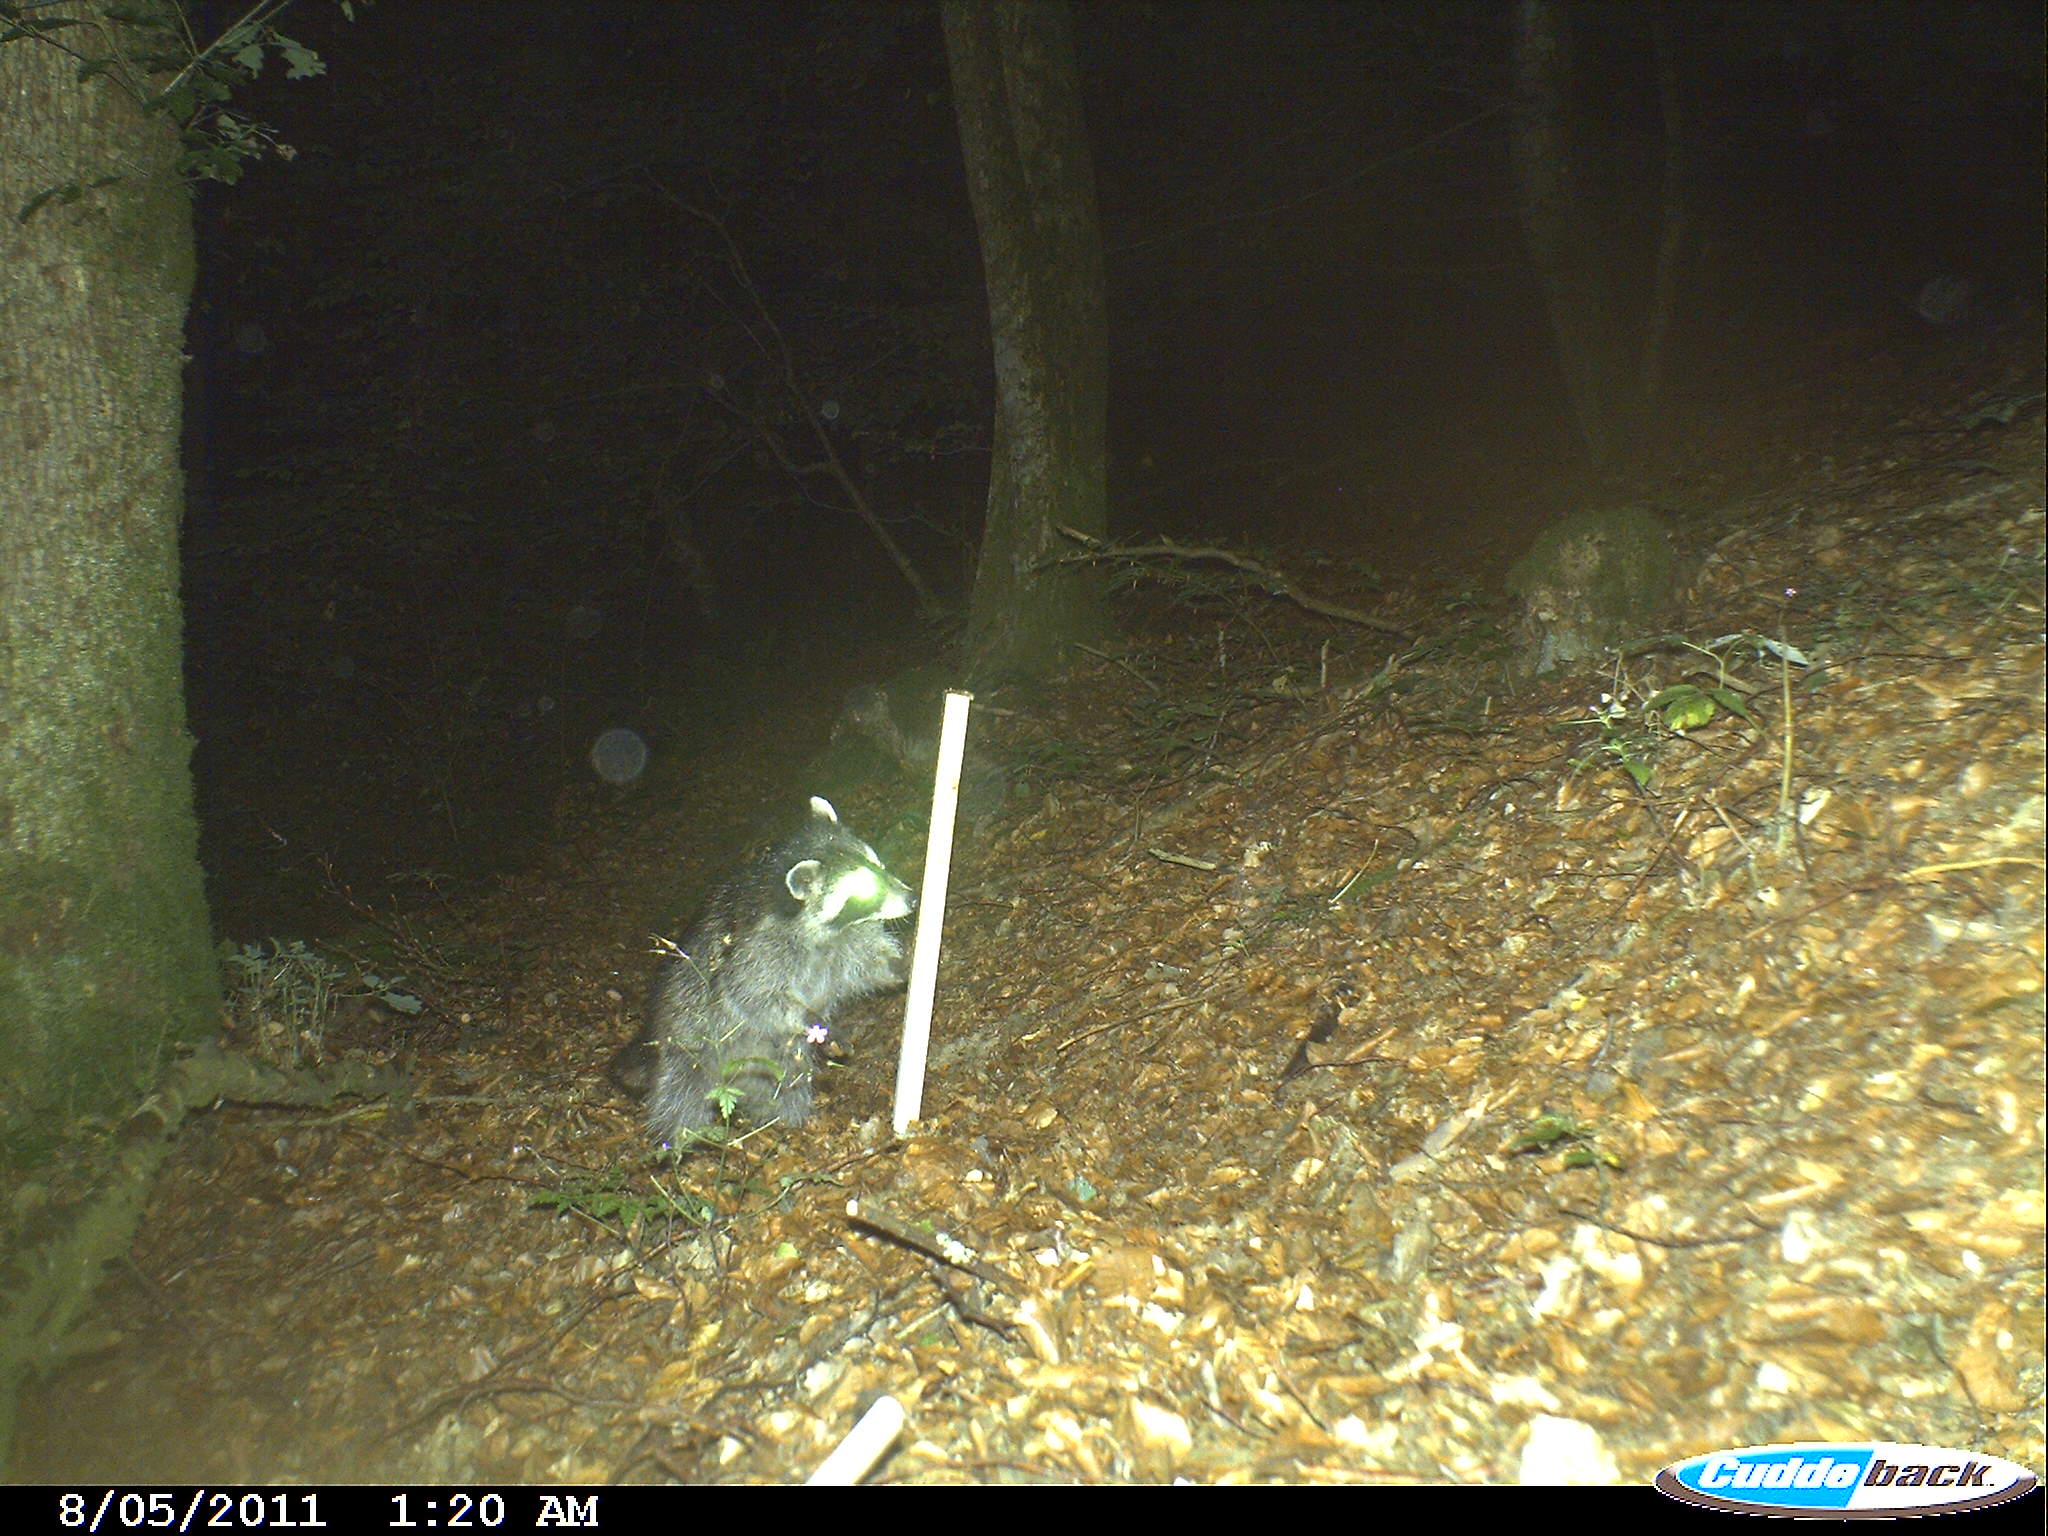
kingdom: Animalia
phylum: Chordata
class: Mammalia
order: Carnivora
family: Procyonidae
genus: Procyon
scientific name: Procyon lotor
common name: Raccoon
